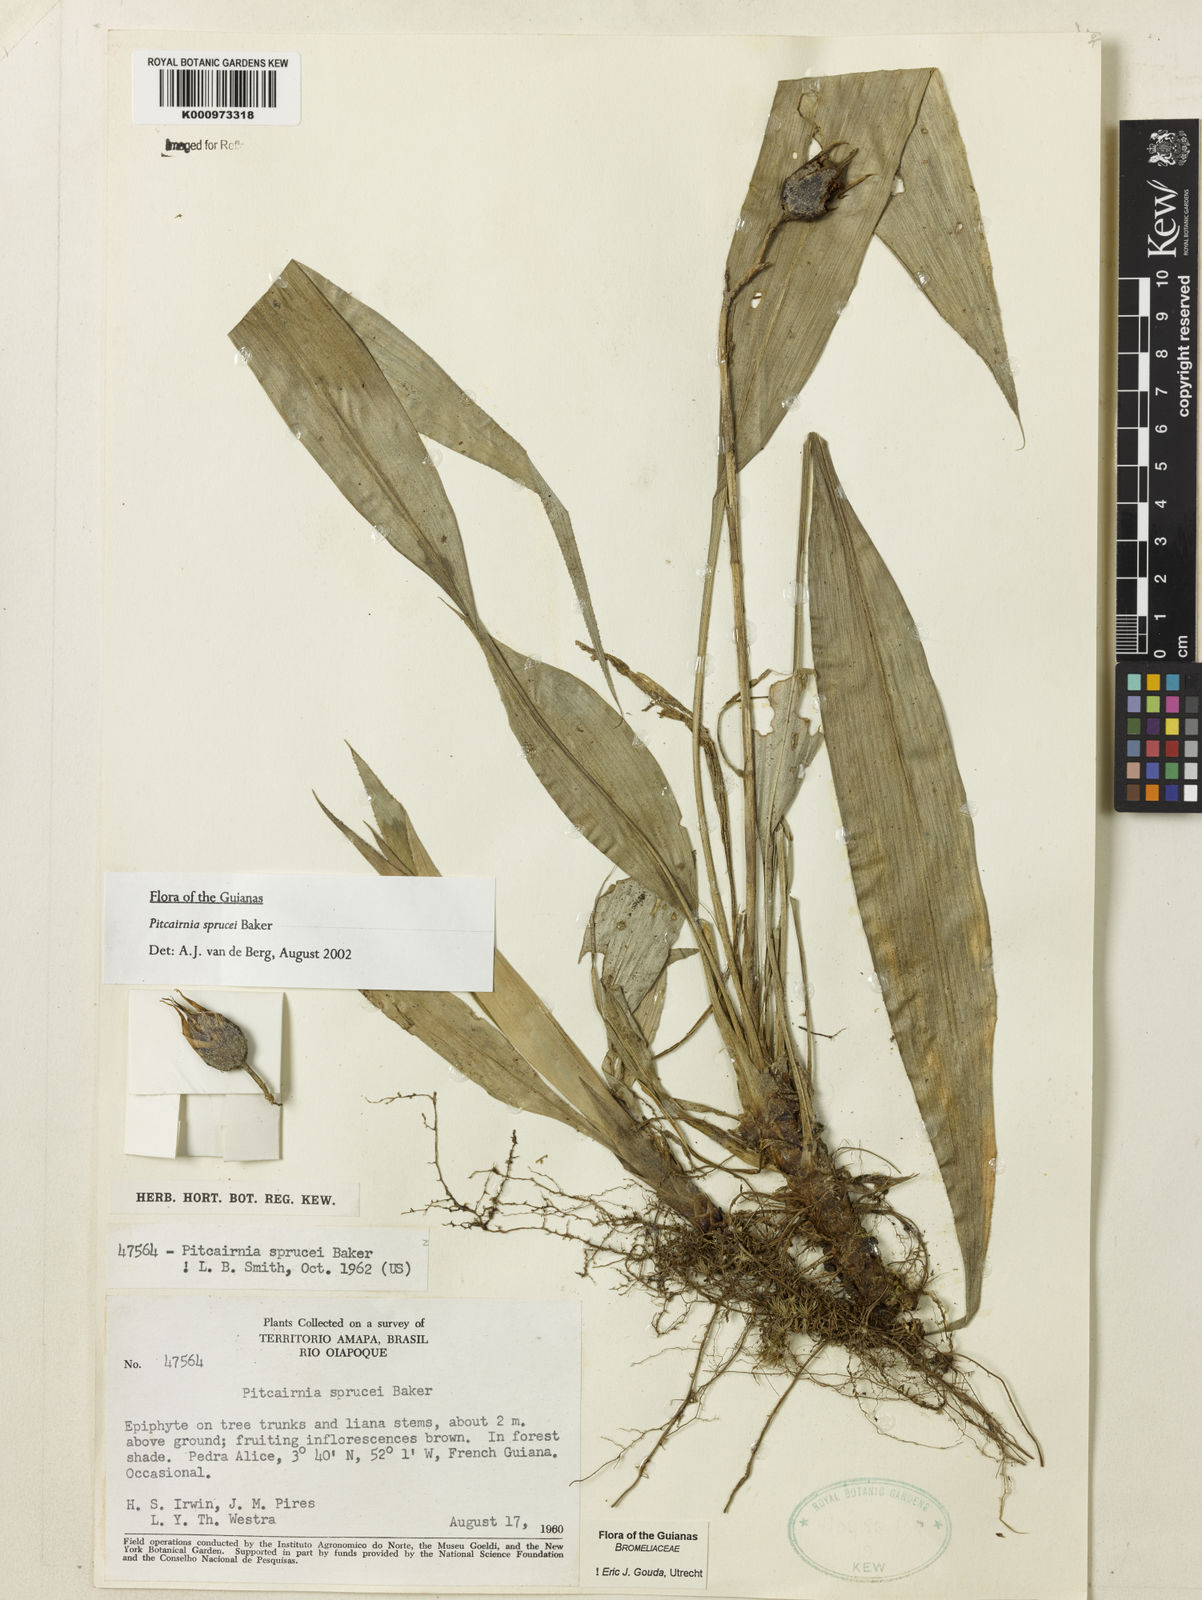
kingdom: Plantae
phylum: Tracheophyta
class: Liliopsida
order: Poales
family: Bromeliaceae
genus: Pitcairnia
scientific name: Pitcairnia sprucei
